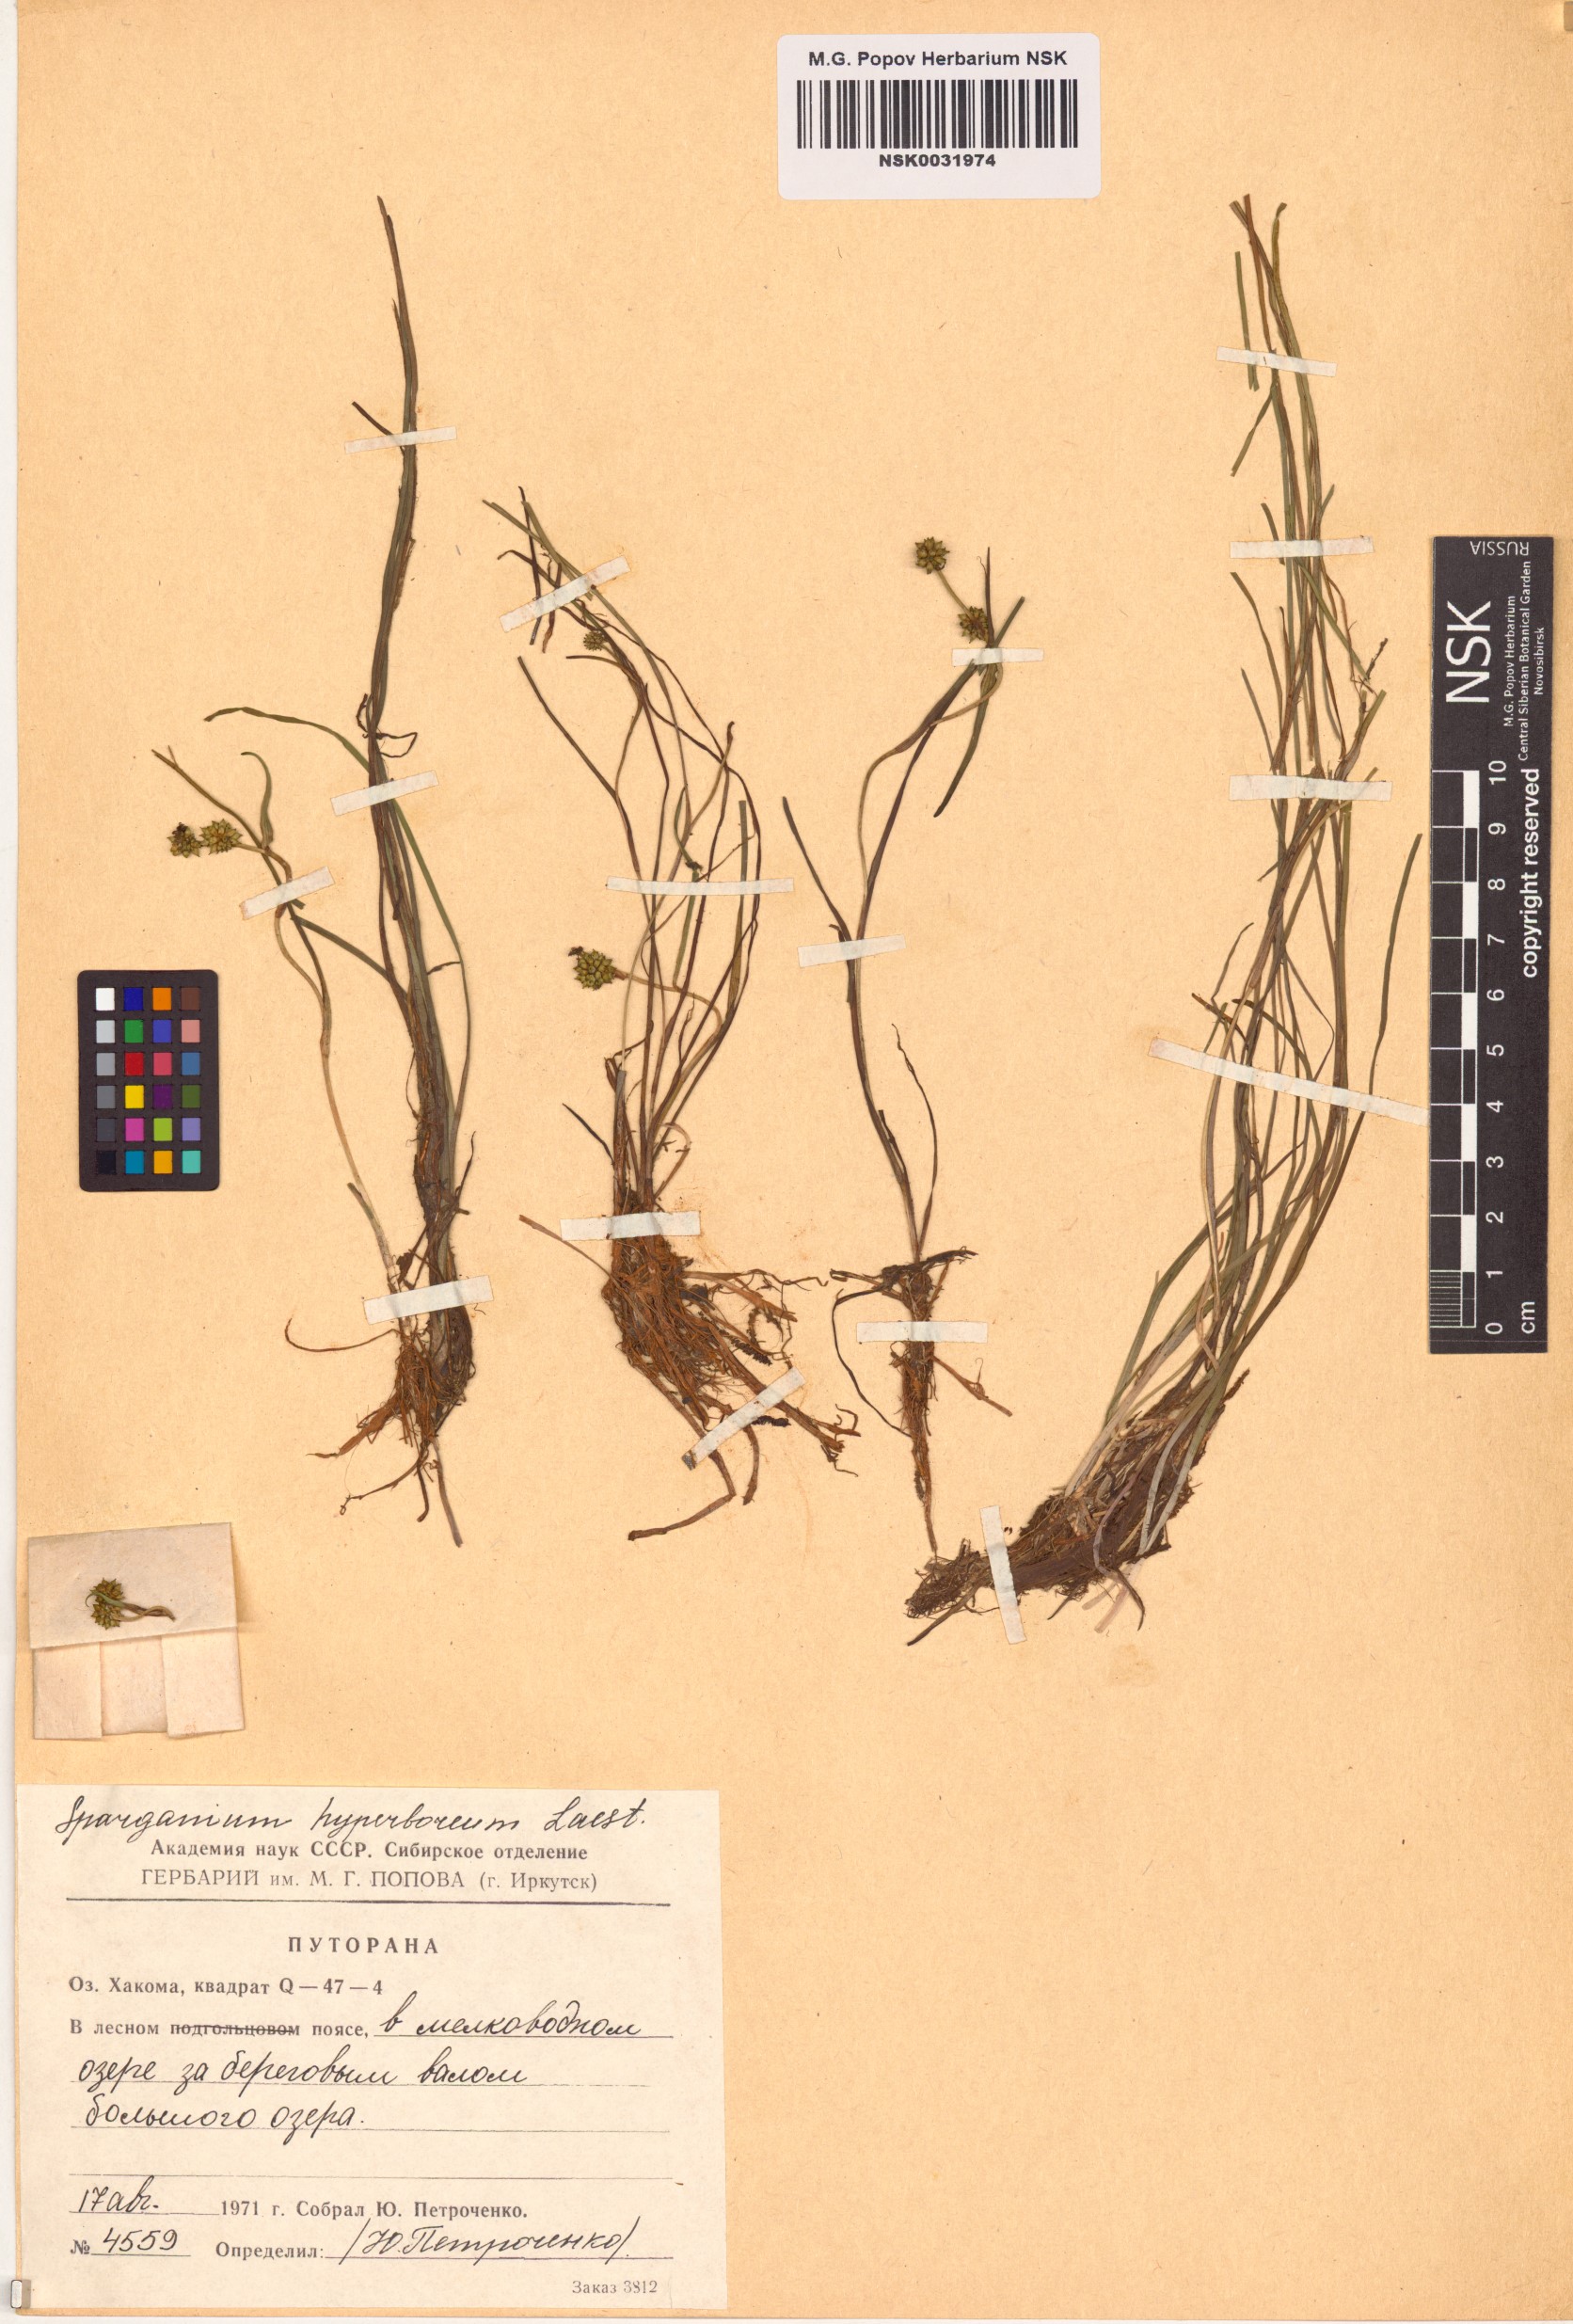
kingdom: Plantae
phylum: Tracheophyta
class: Liliopsida
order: Poales
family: Typhaceae
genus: Sparganium
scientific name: Sparganium hyperboreum
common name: Arctic burreed
